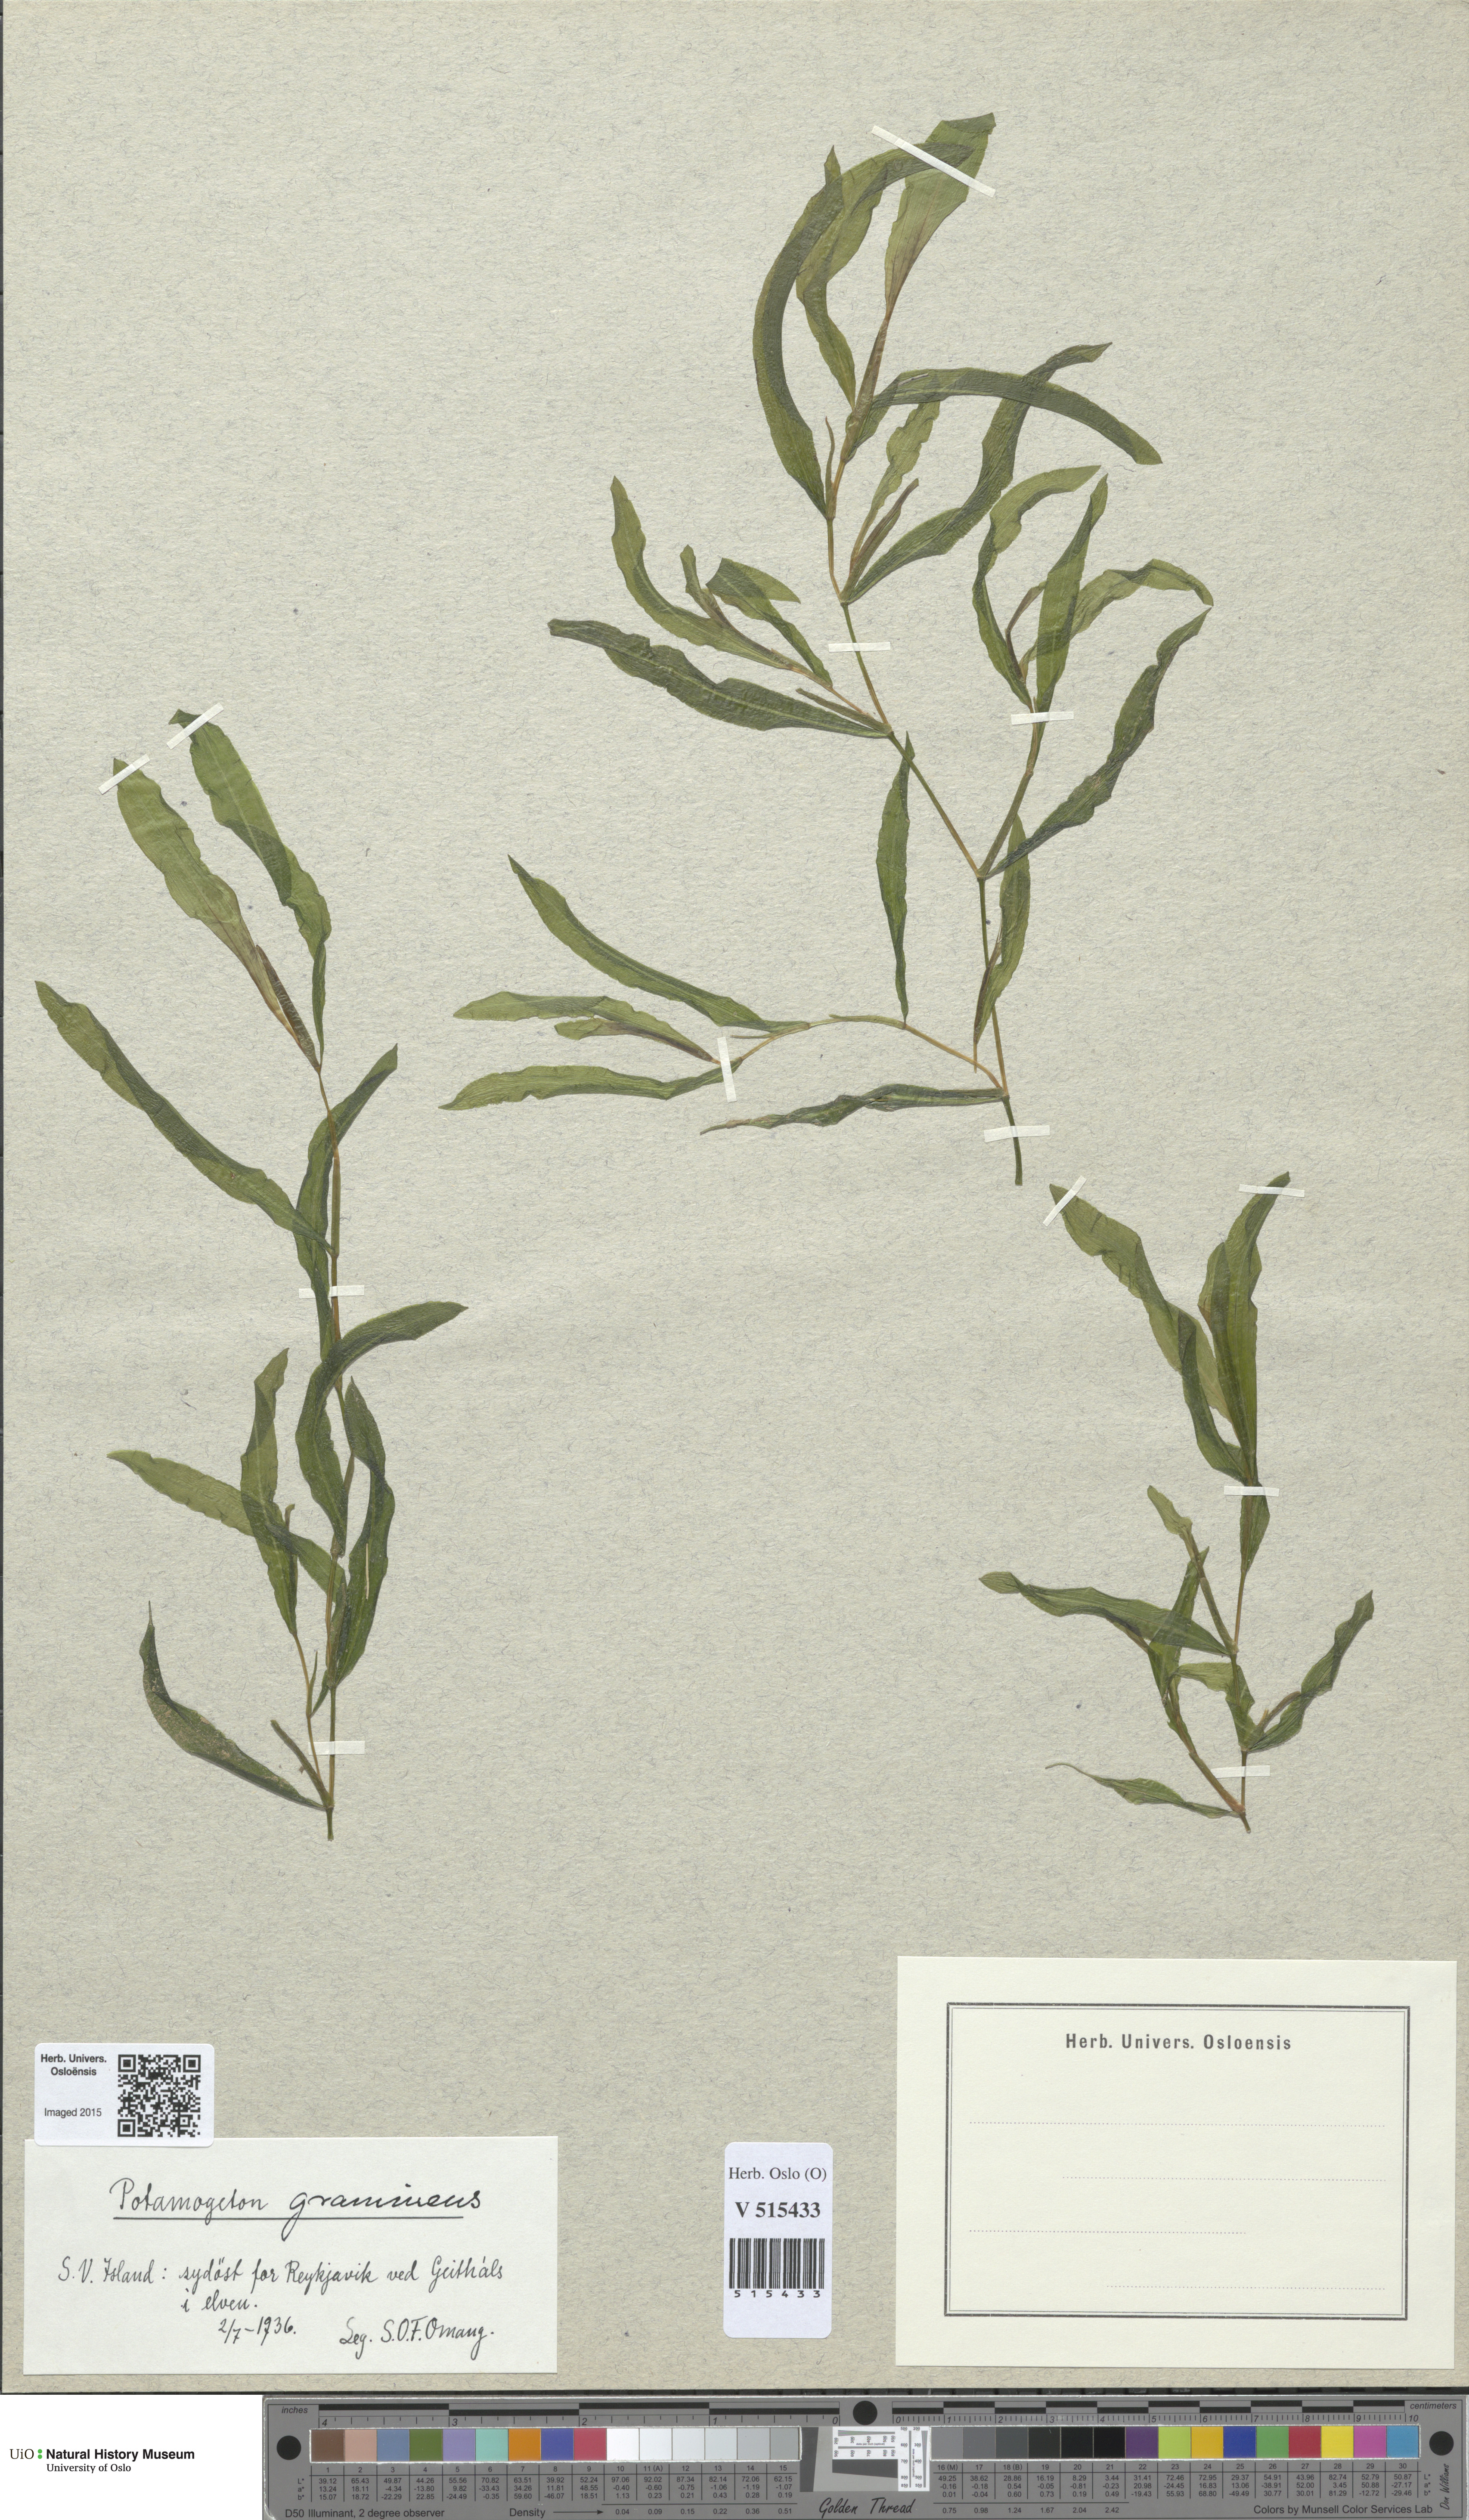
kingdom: Plantae
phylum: Tracheophyta
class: Liliopsida
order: Alismatales
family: Potamogetonaceae
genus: Potamogeton
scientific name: Potamogeton gramineus
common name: Various-leaved pondweed
